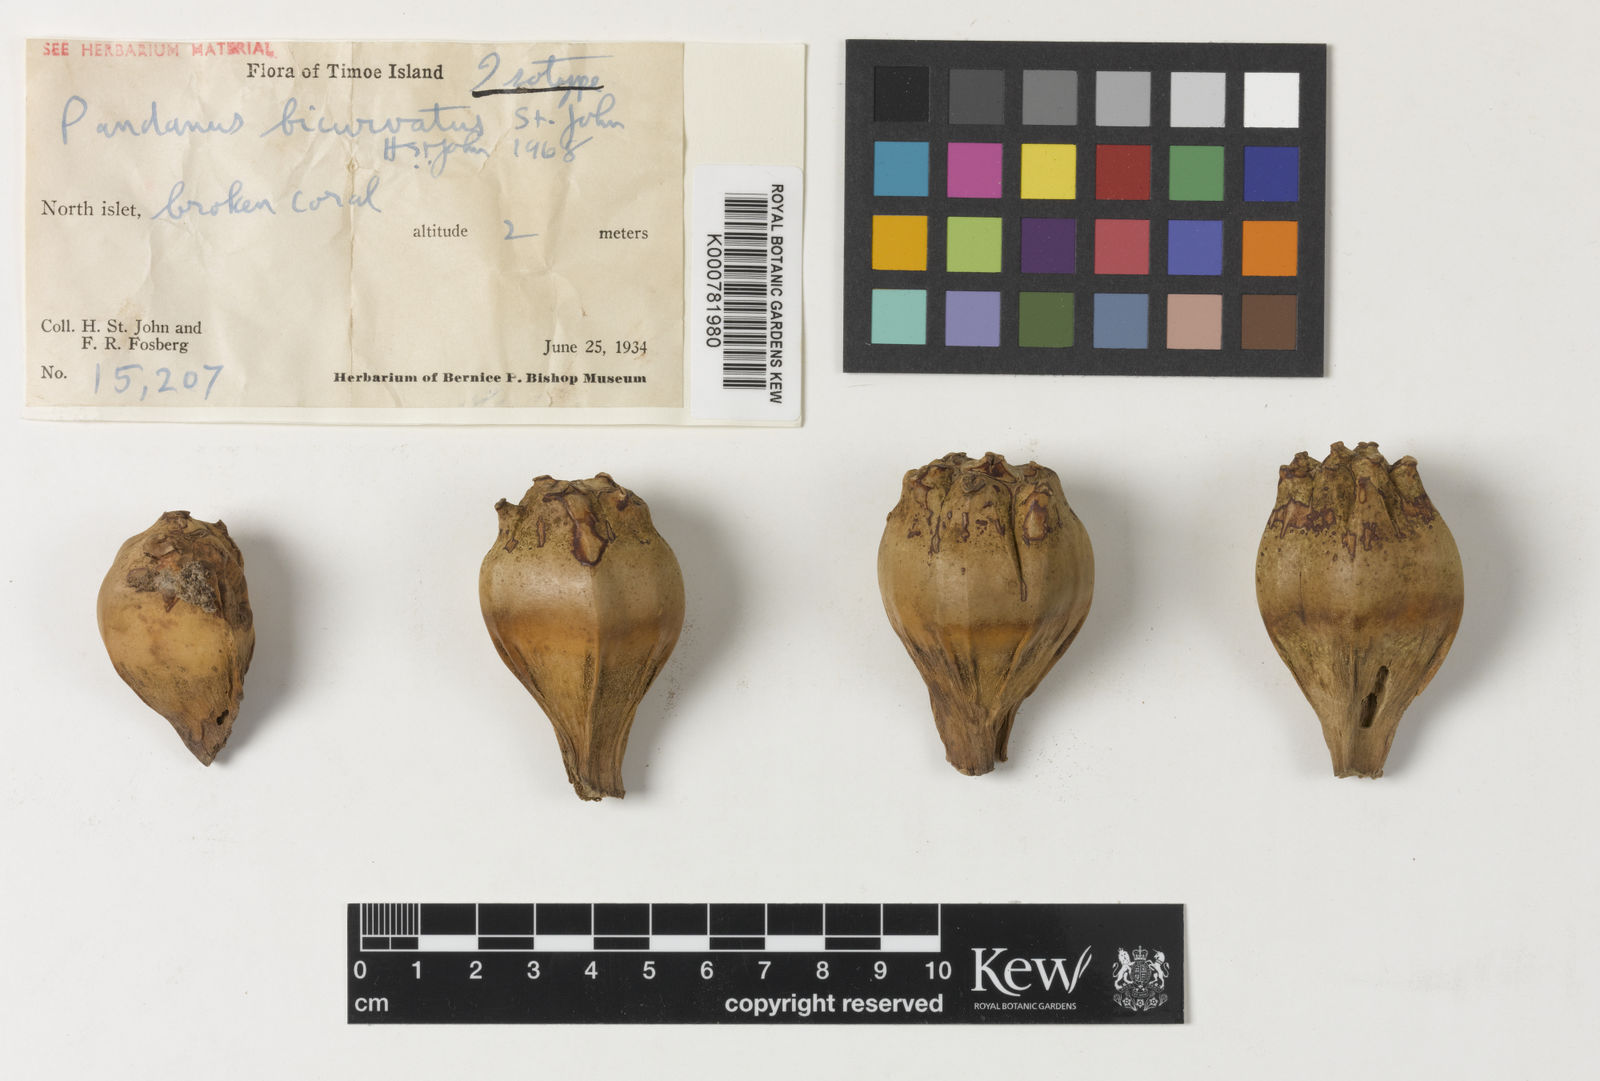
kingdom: Plantae
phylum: Tracheophyta
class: Liliopsida
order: Pandanales
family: Pandanaceae
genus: Pandanus
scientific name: Pandanus tectorius
